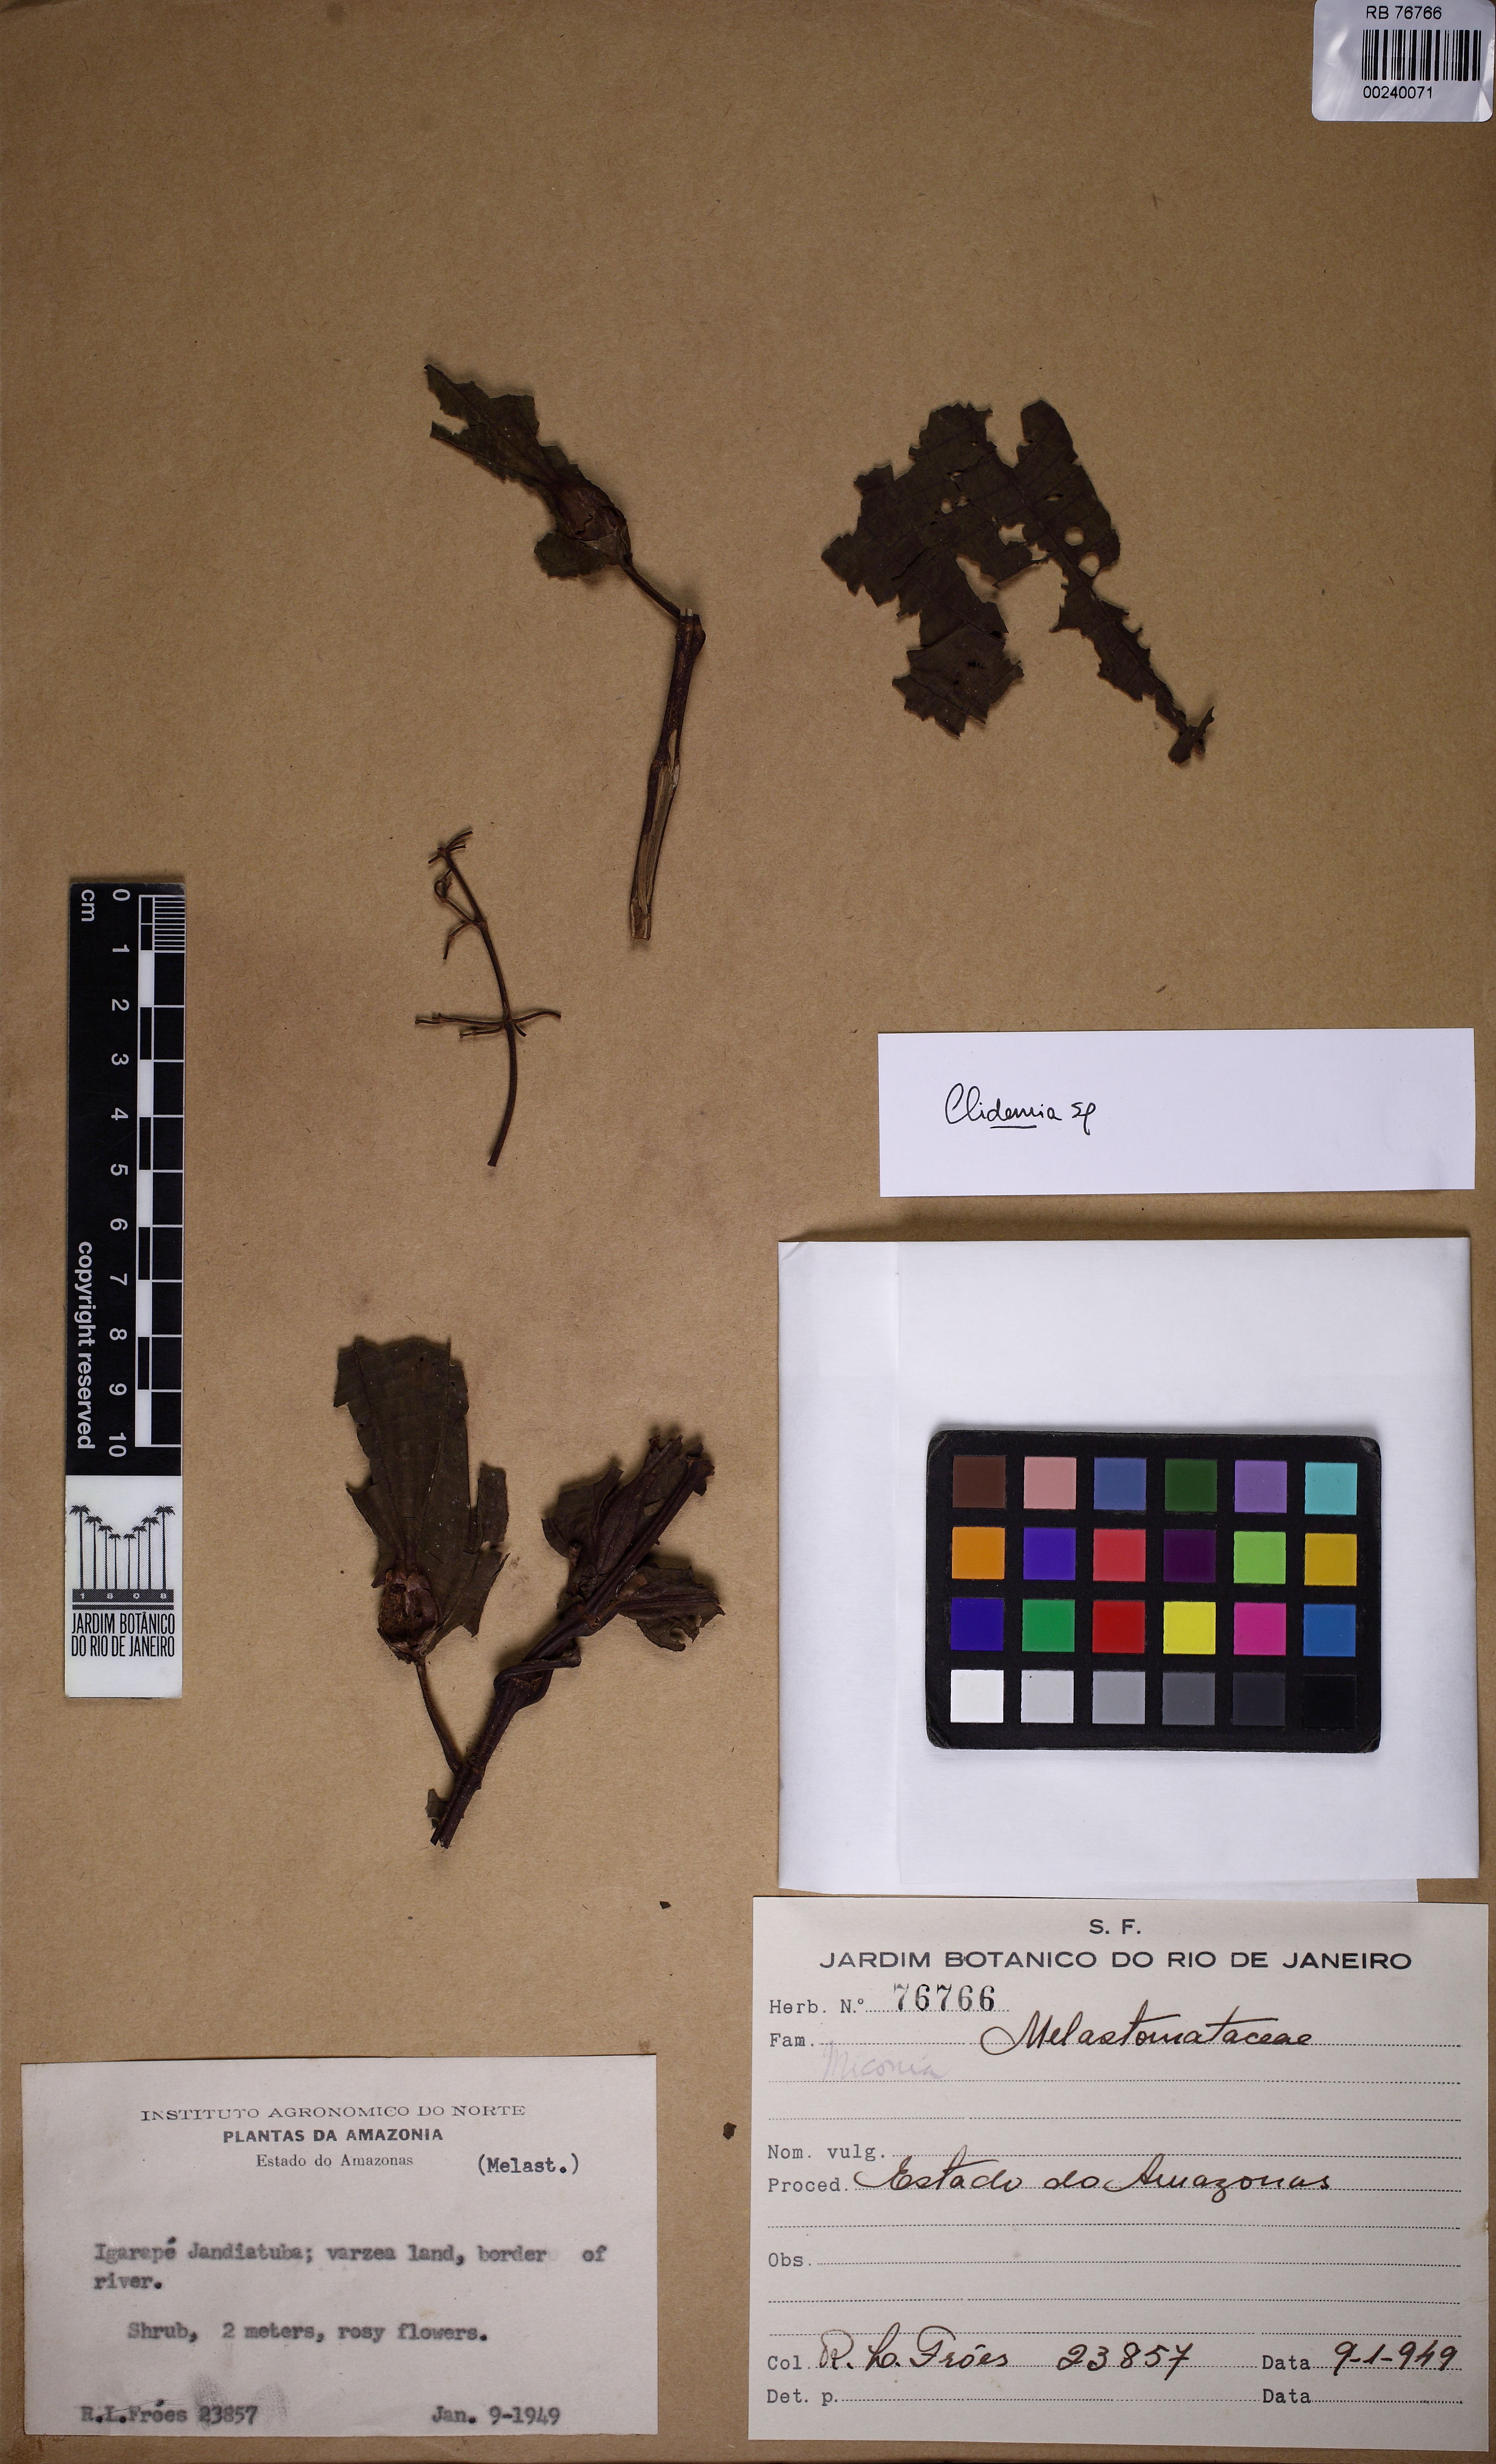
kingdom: Plantae
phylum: Tracheophyta
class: Magnoliopsida
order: Myrtales
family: Melastomataceae
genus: Miconia
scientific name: Miconia
